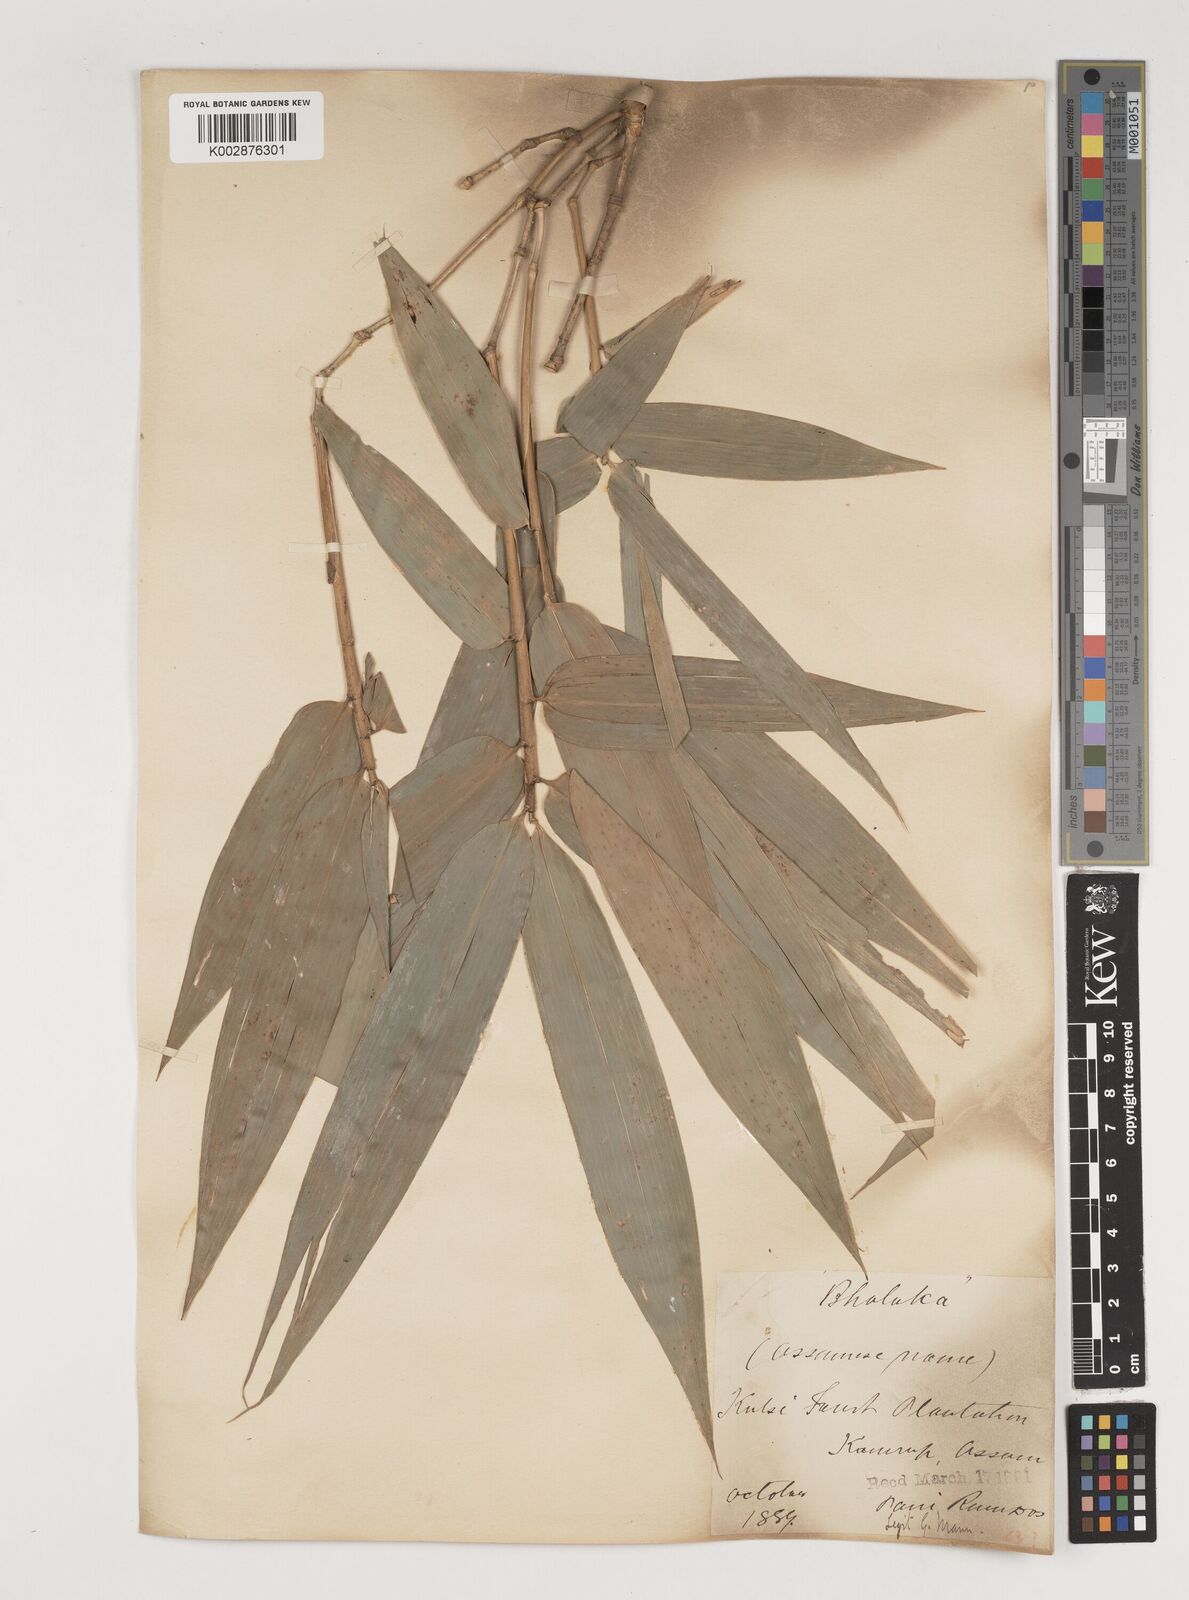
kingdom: Plantae
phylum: Tracheophyta
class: Liliopsida
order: Poales
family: Poaceae
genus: Bambusa
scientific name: Bambusa balcooa
